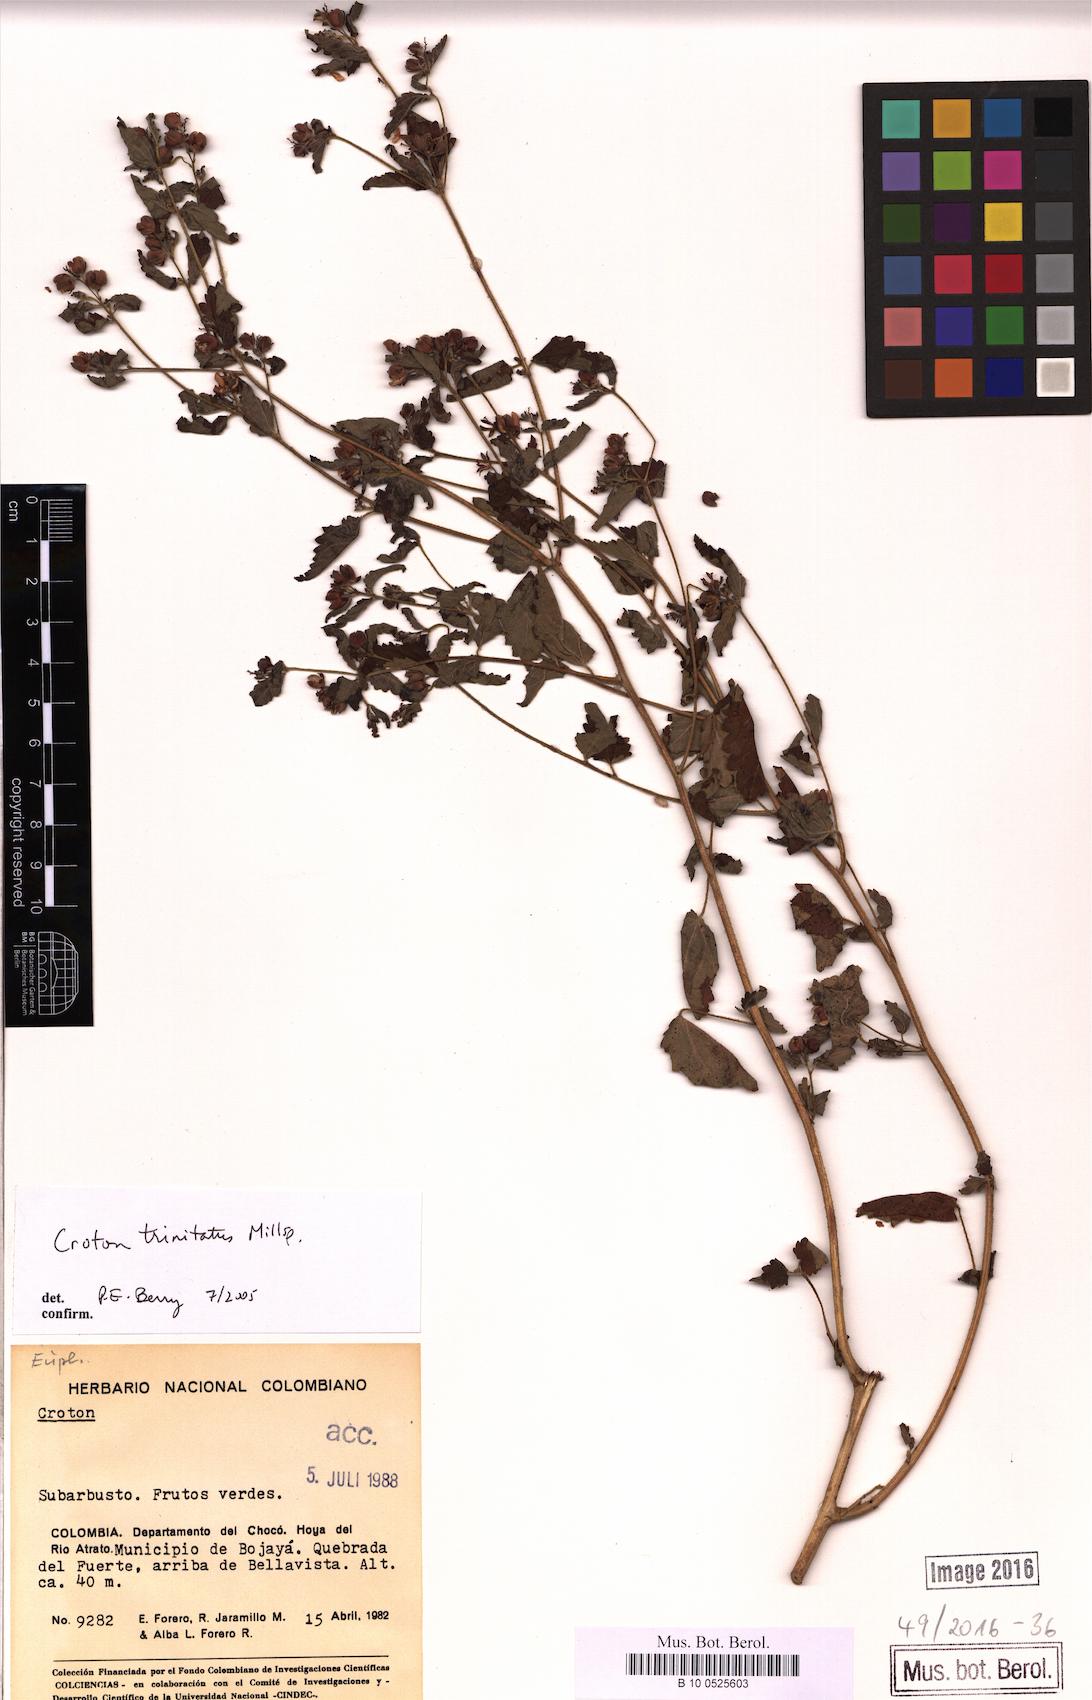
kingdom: Plantae
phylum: Tracheophyta
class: Magnoliopsida
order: Malpighiales
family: Euphorbiaceae
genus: Croton
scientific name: Croton trinitatis
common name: Roadside croton
